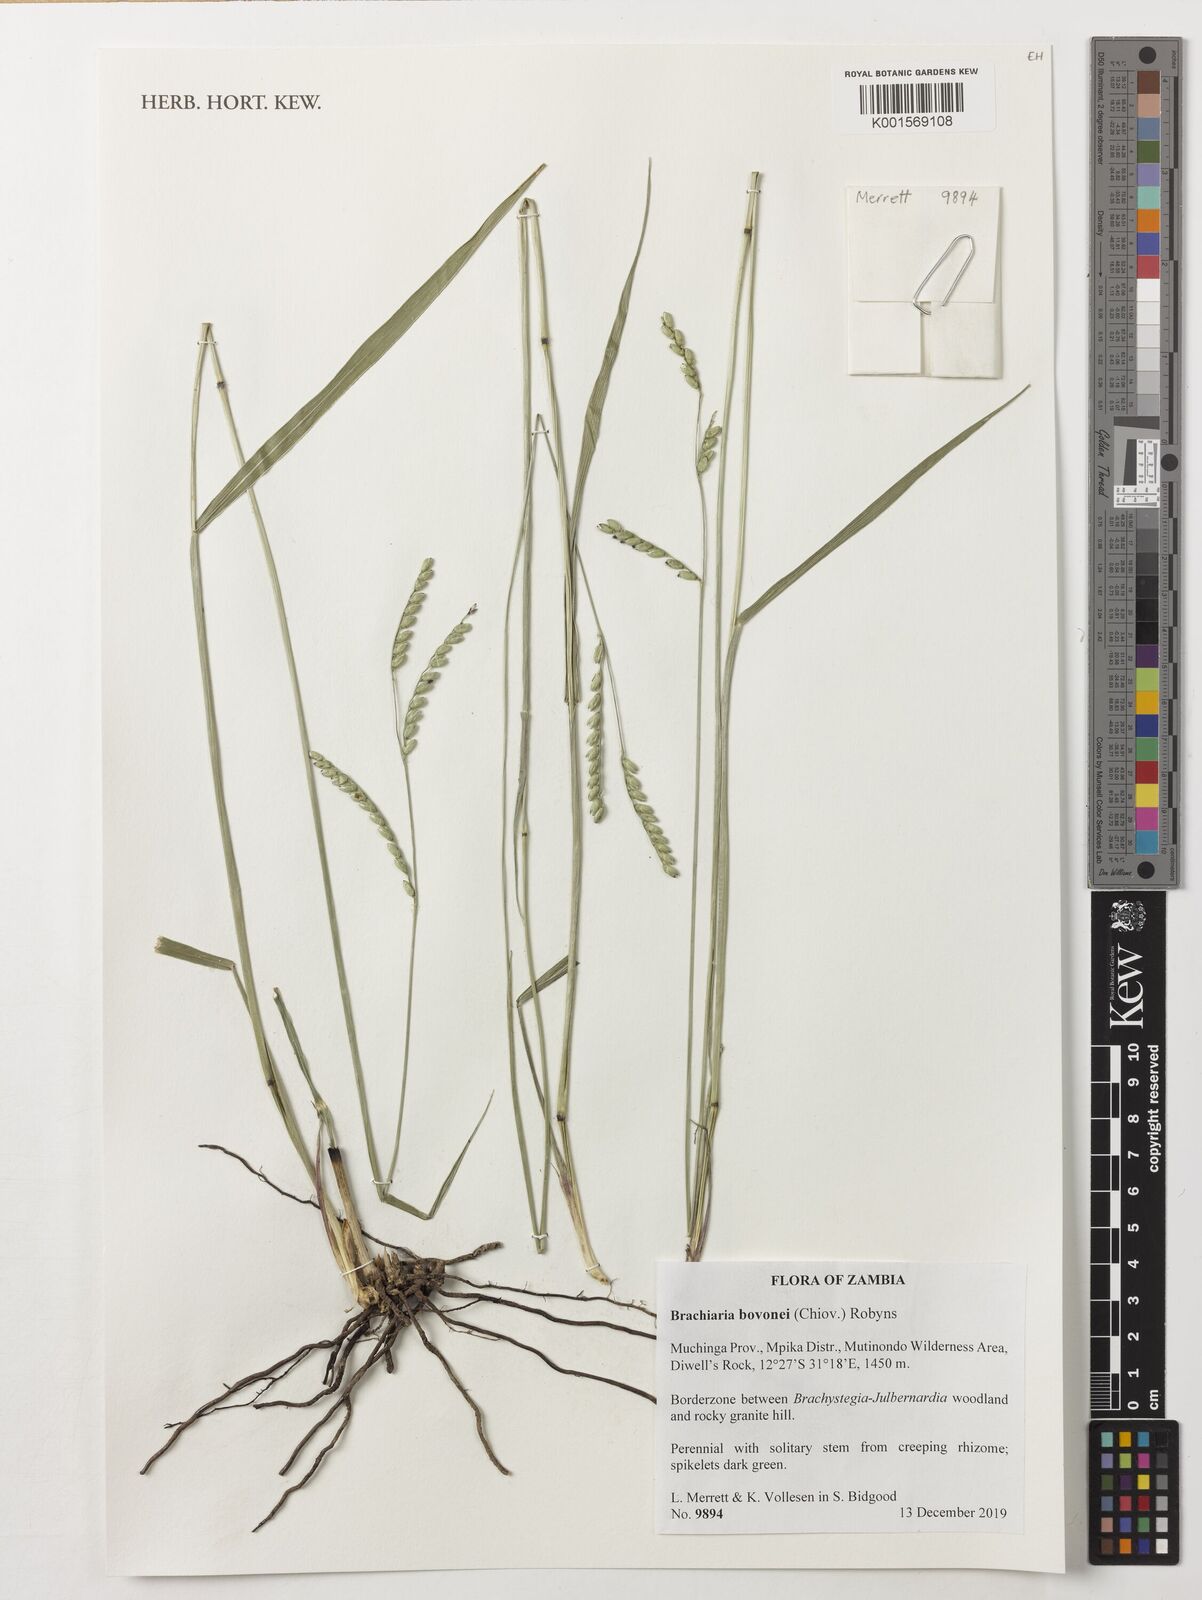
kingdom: Plantae
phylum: Tracheophyta
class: Liliopsida
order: Poales
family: Poaceae
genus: Urochloa
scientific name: Urochloa bovonei
